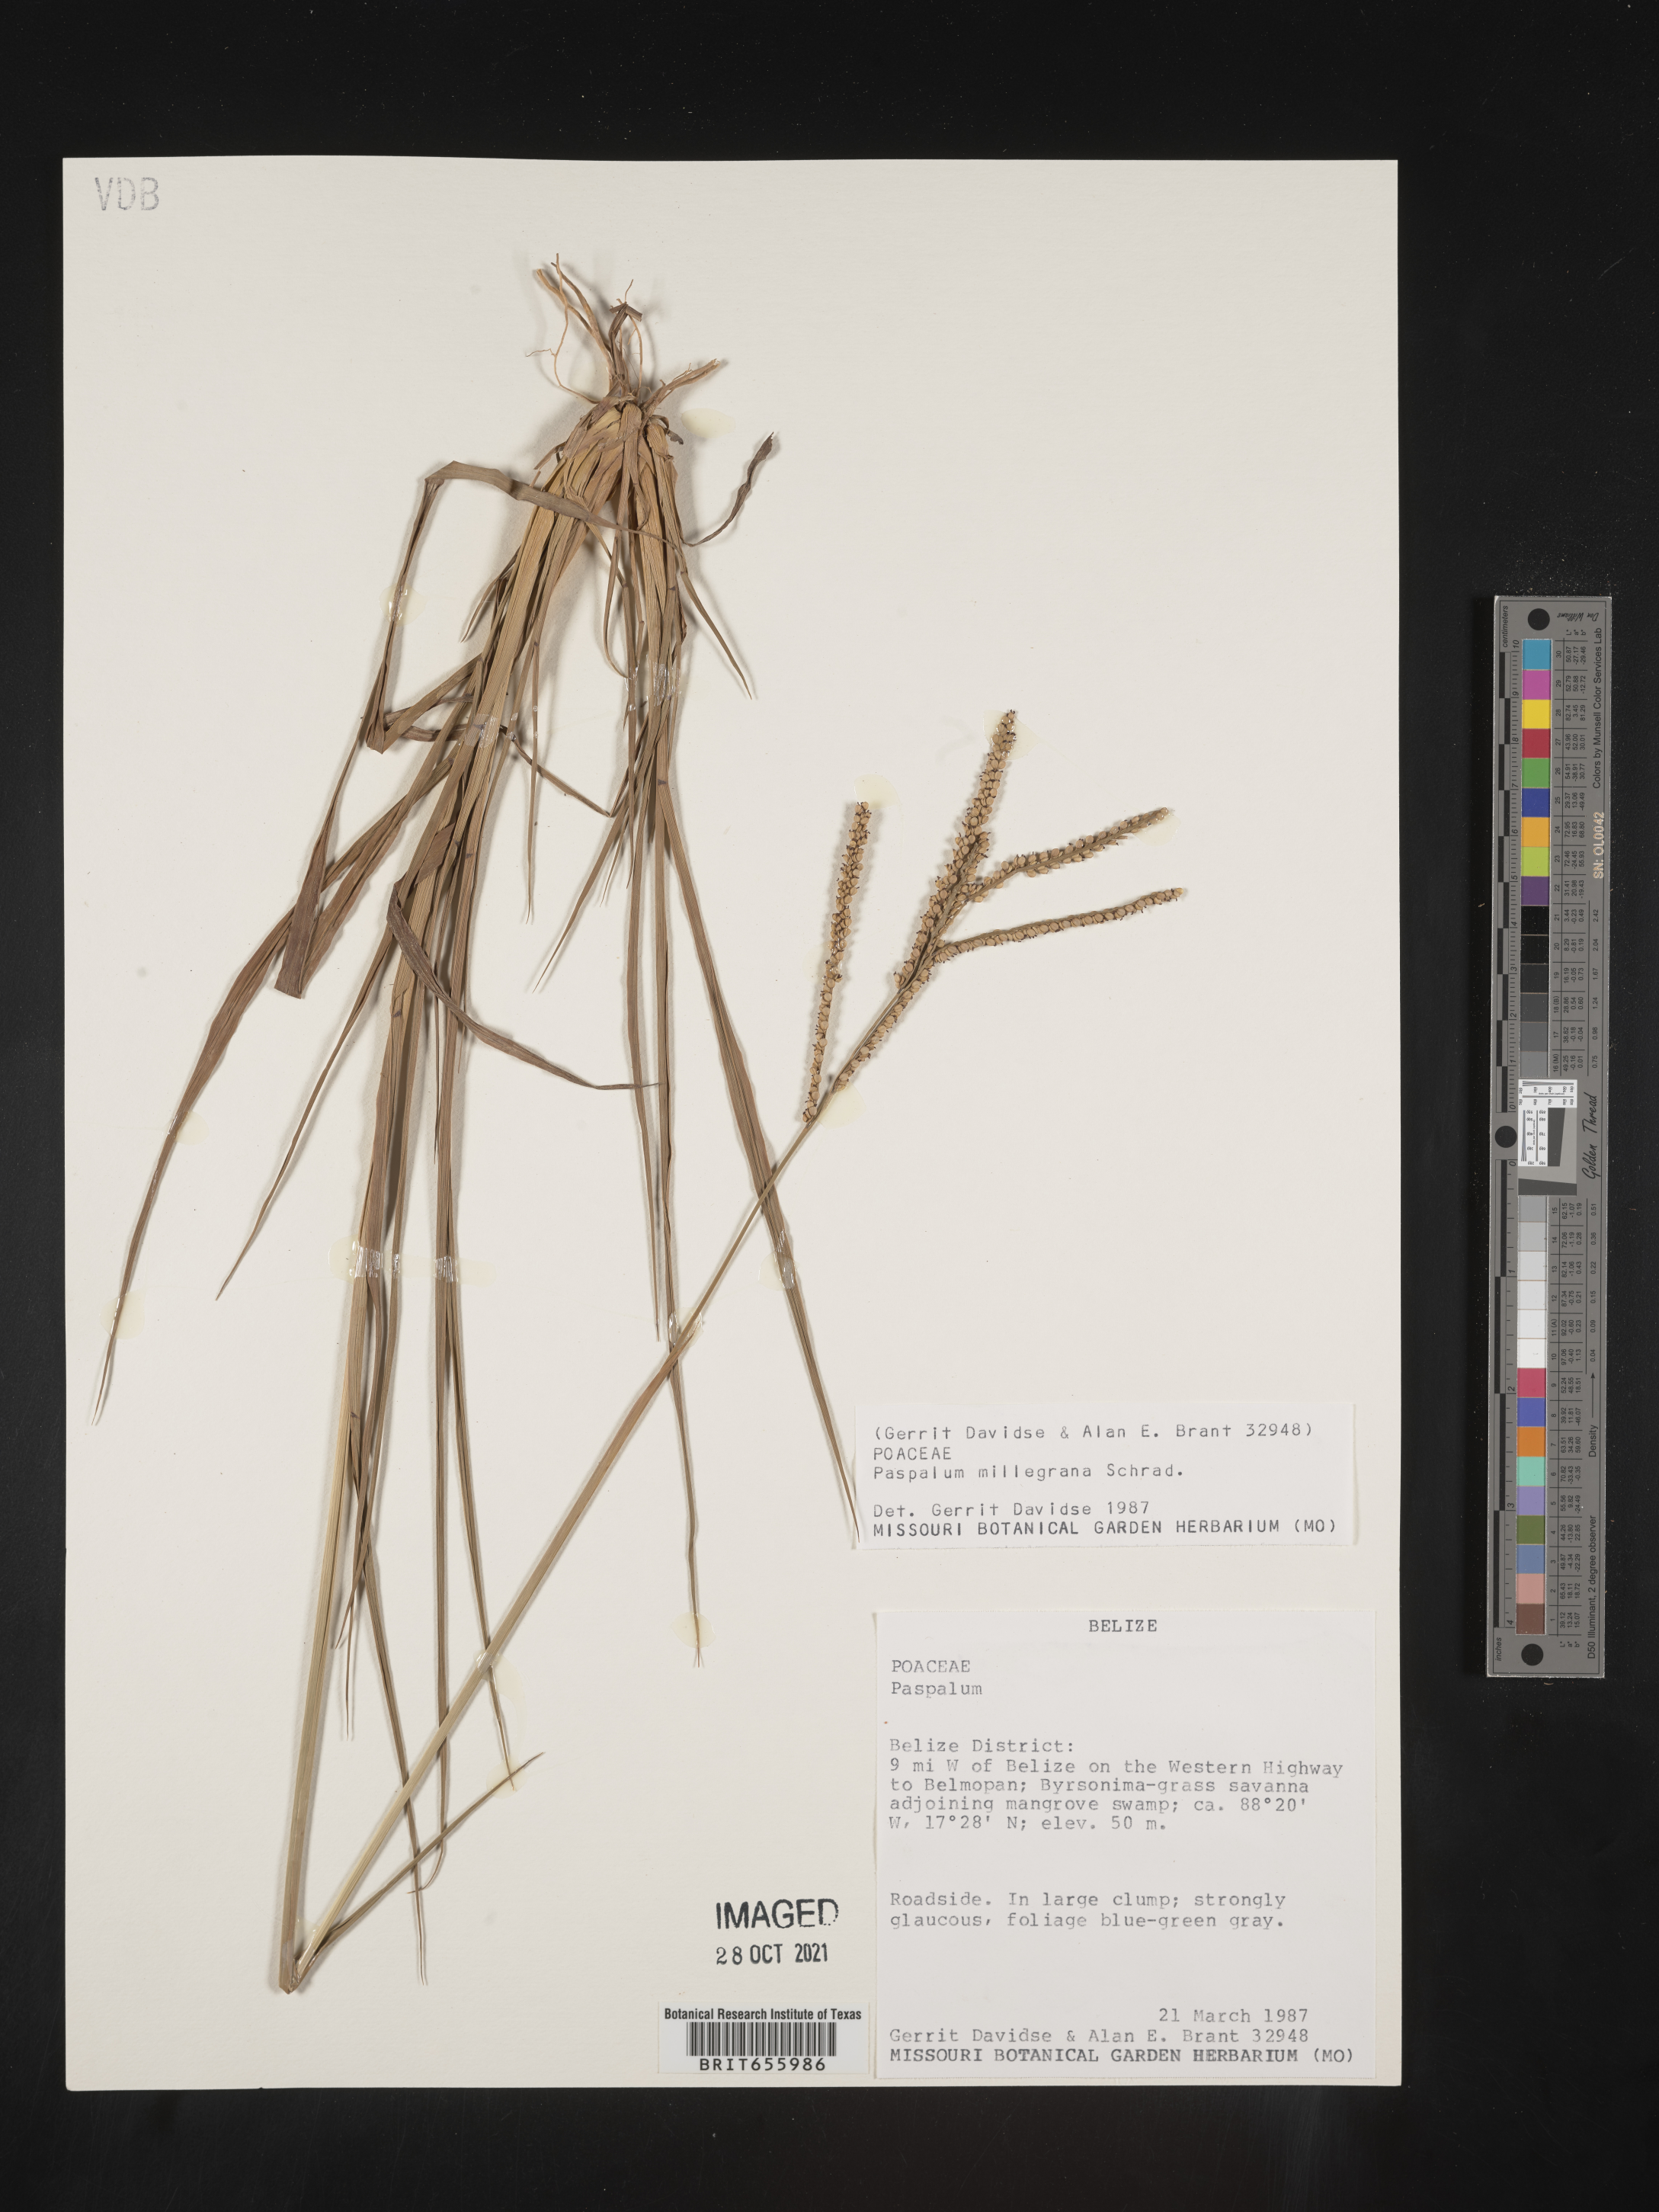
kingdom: Plantae
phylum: Tracheophyta
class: Liliopsida
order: Poales
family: Poaceae
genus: Paspalum
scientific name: Paspalum
